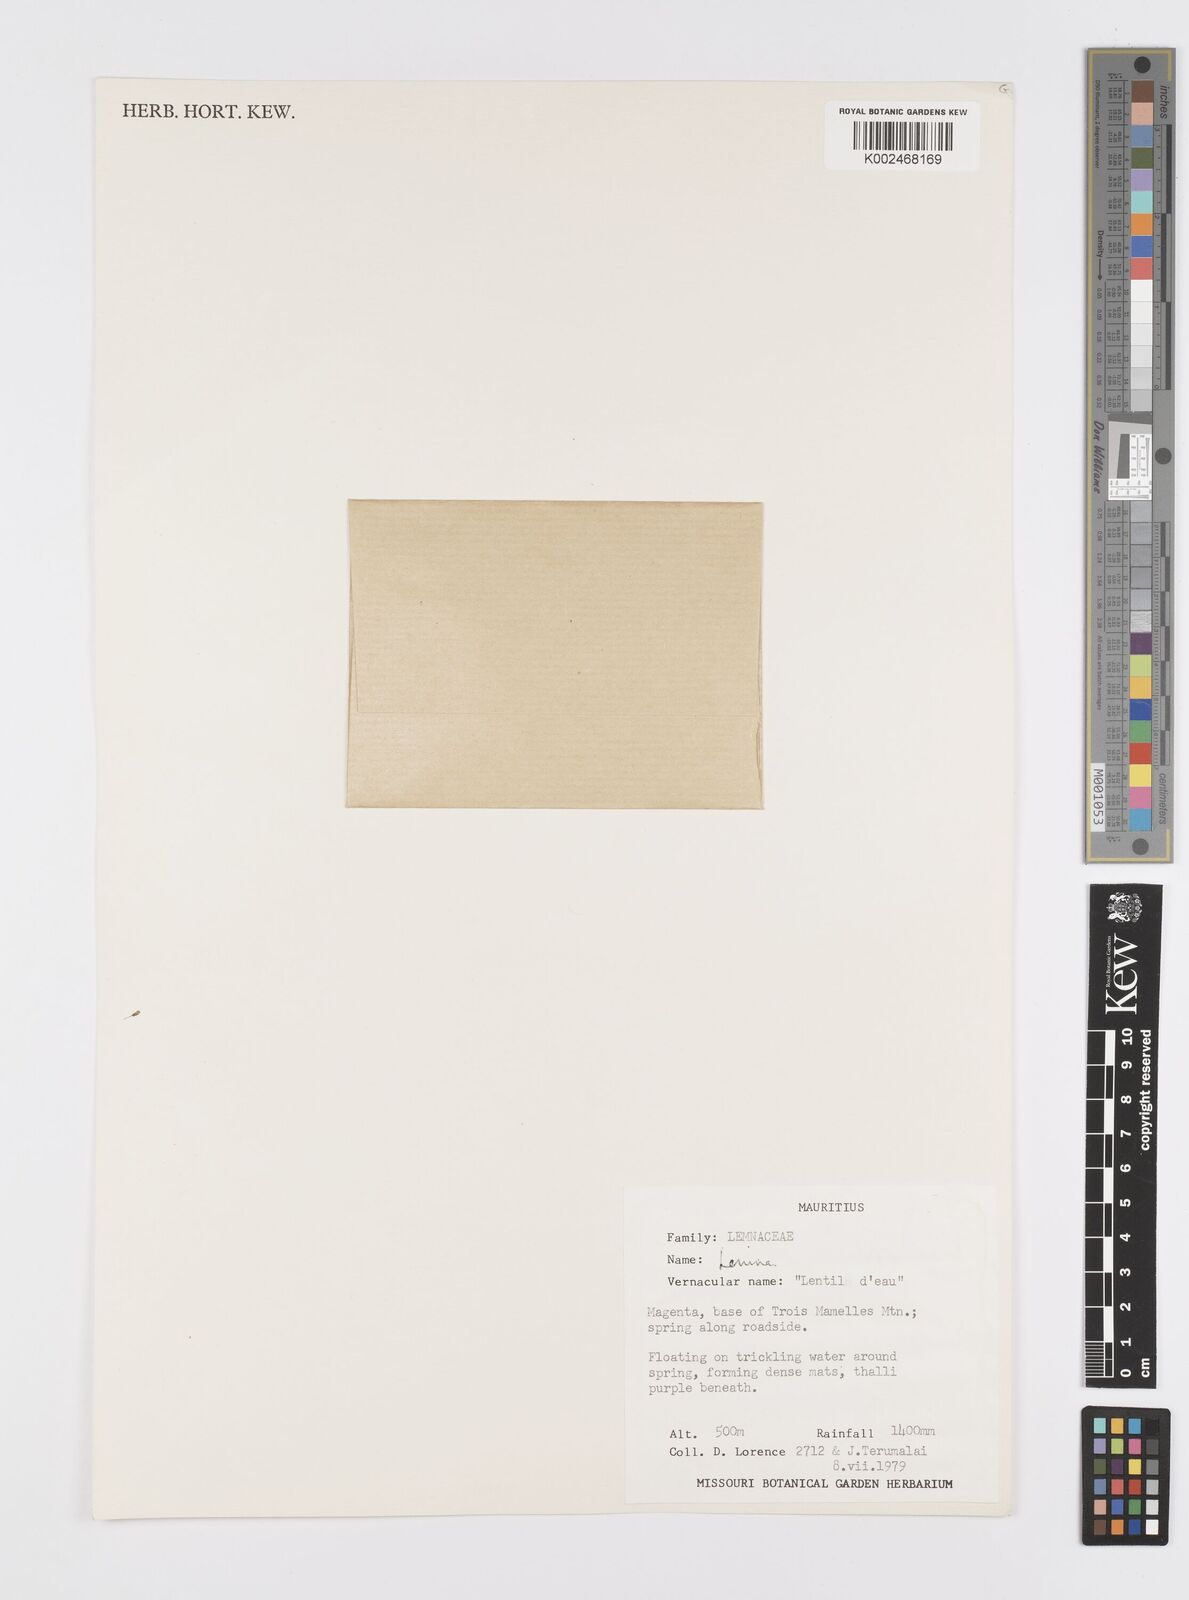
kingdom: Plantae
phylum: Tracheophyta
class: Liliopsida
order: Alismatales
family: Araceae
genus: Lemna
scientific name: Lemna perpusilla
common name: Duckweed
